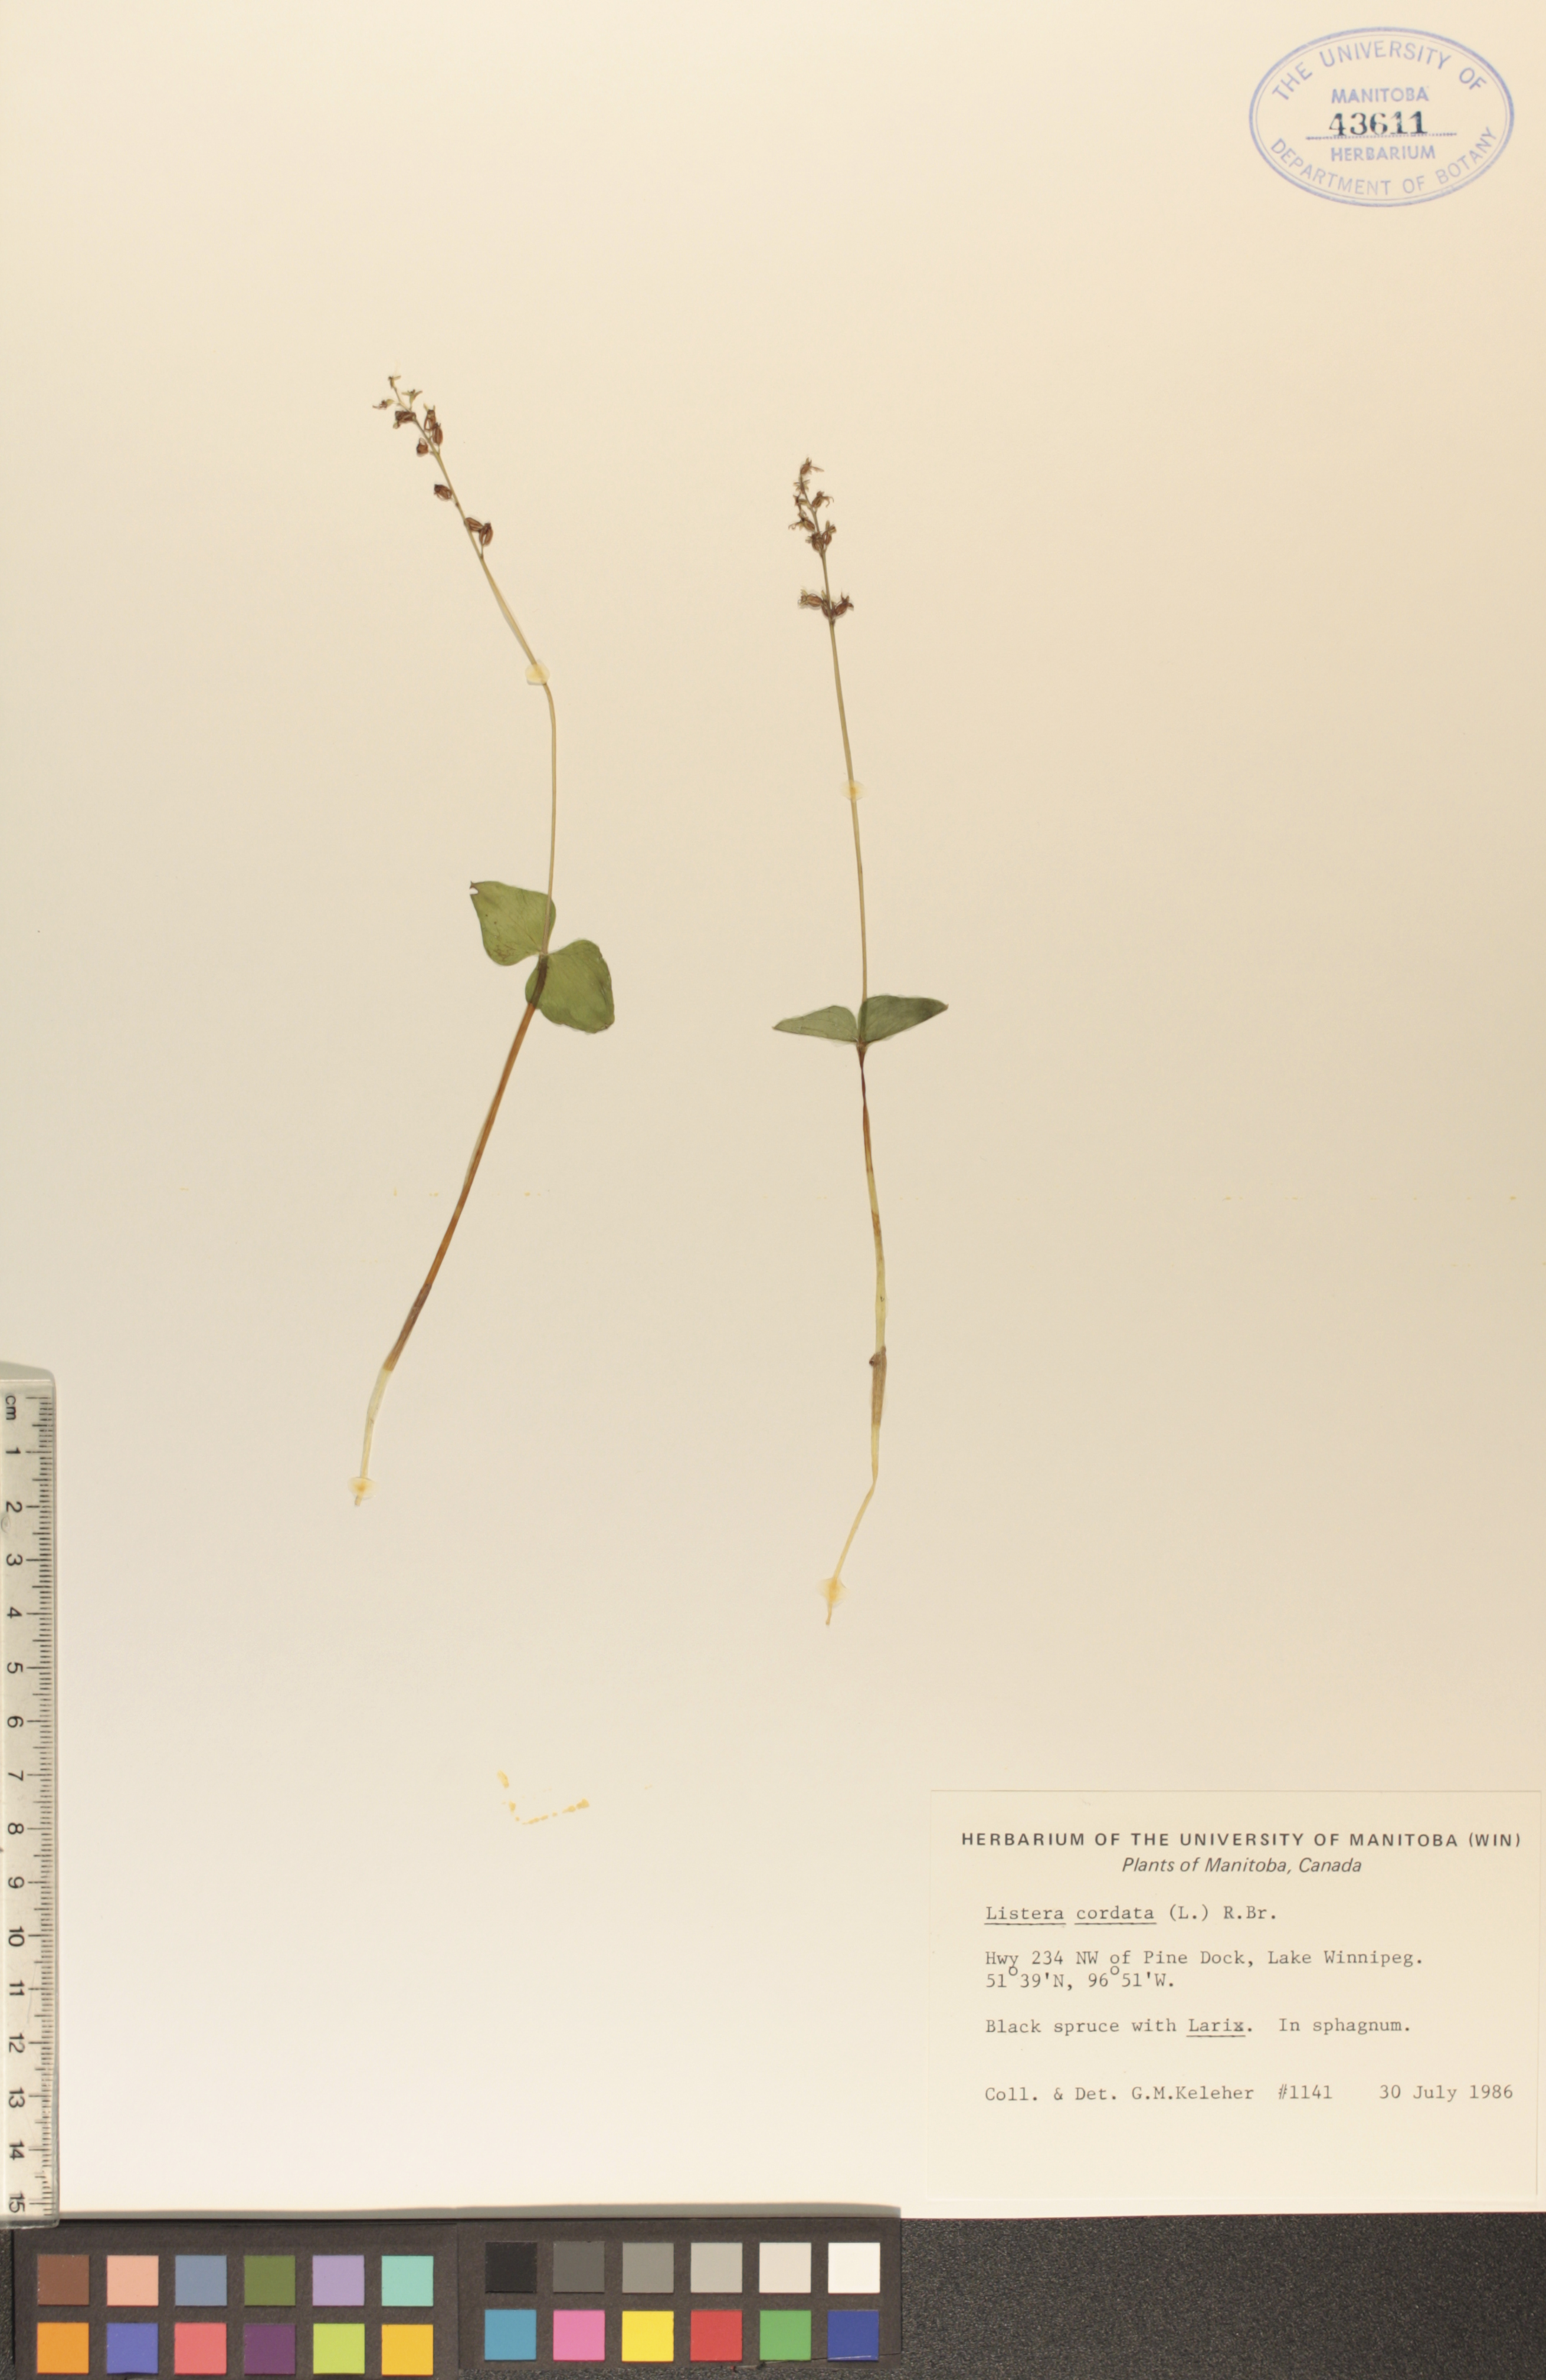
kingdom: Plantae
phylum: Tracheophyta
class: Liliopsida
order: Asparagales
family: Orchidaceae
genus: Neottia
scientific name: Neottia cordata
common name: Lesser twayblade
